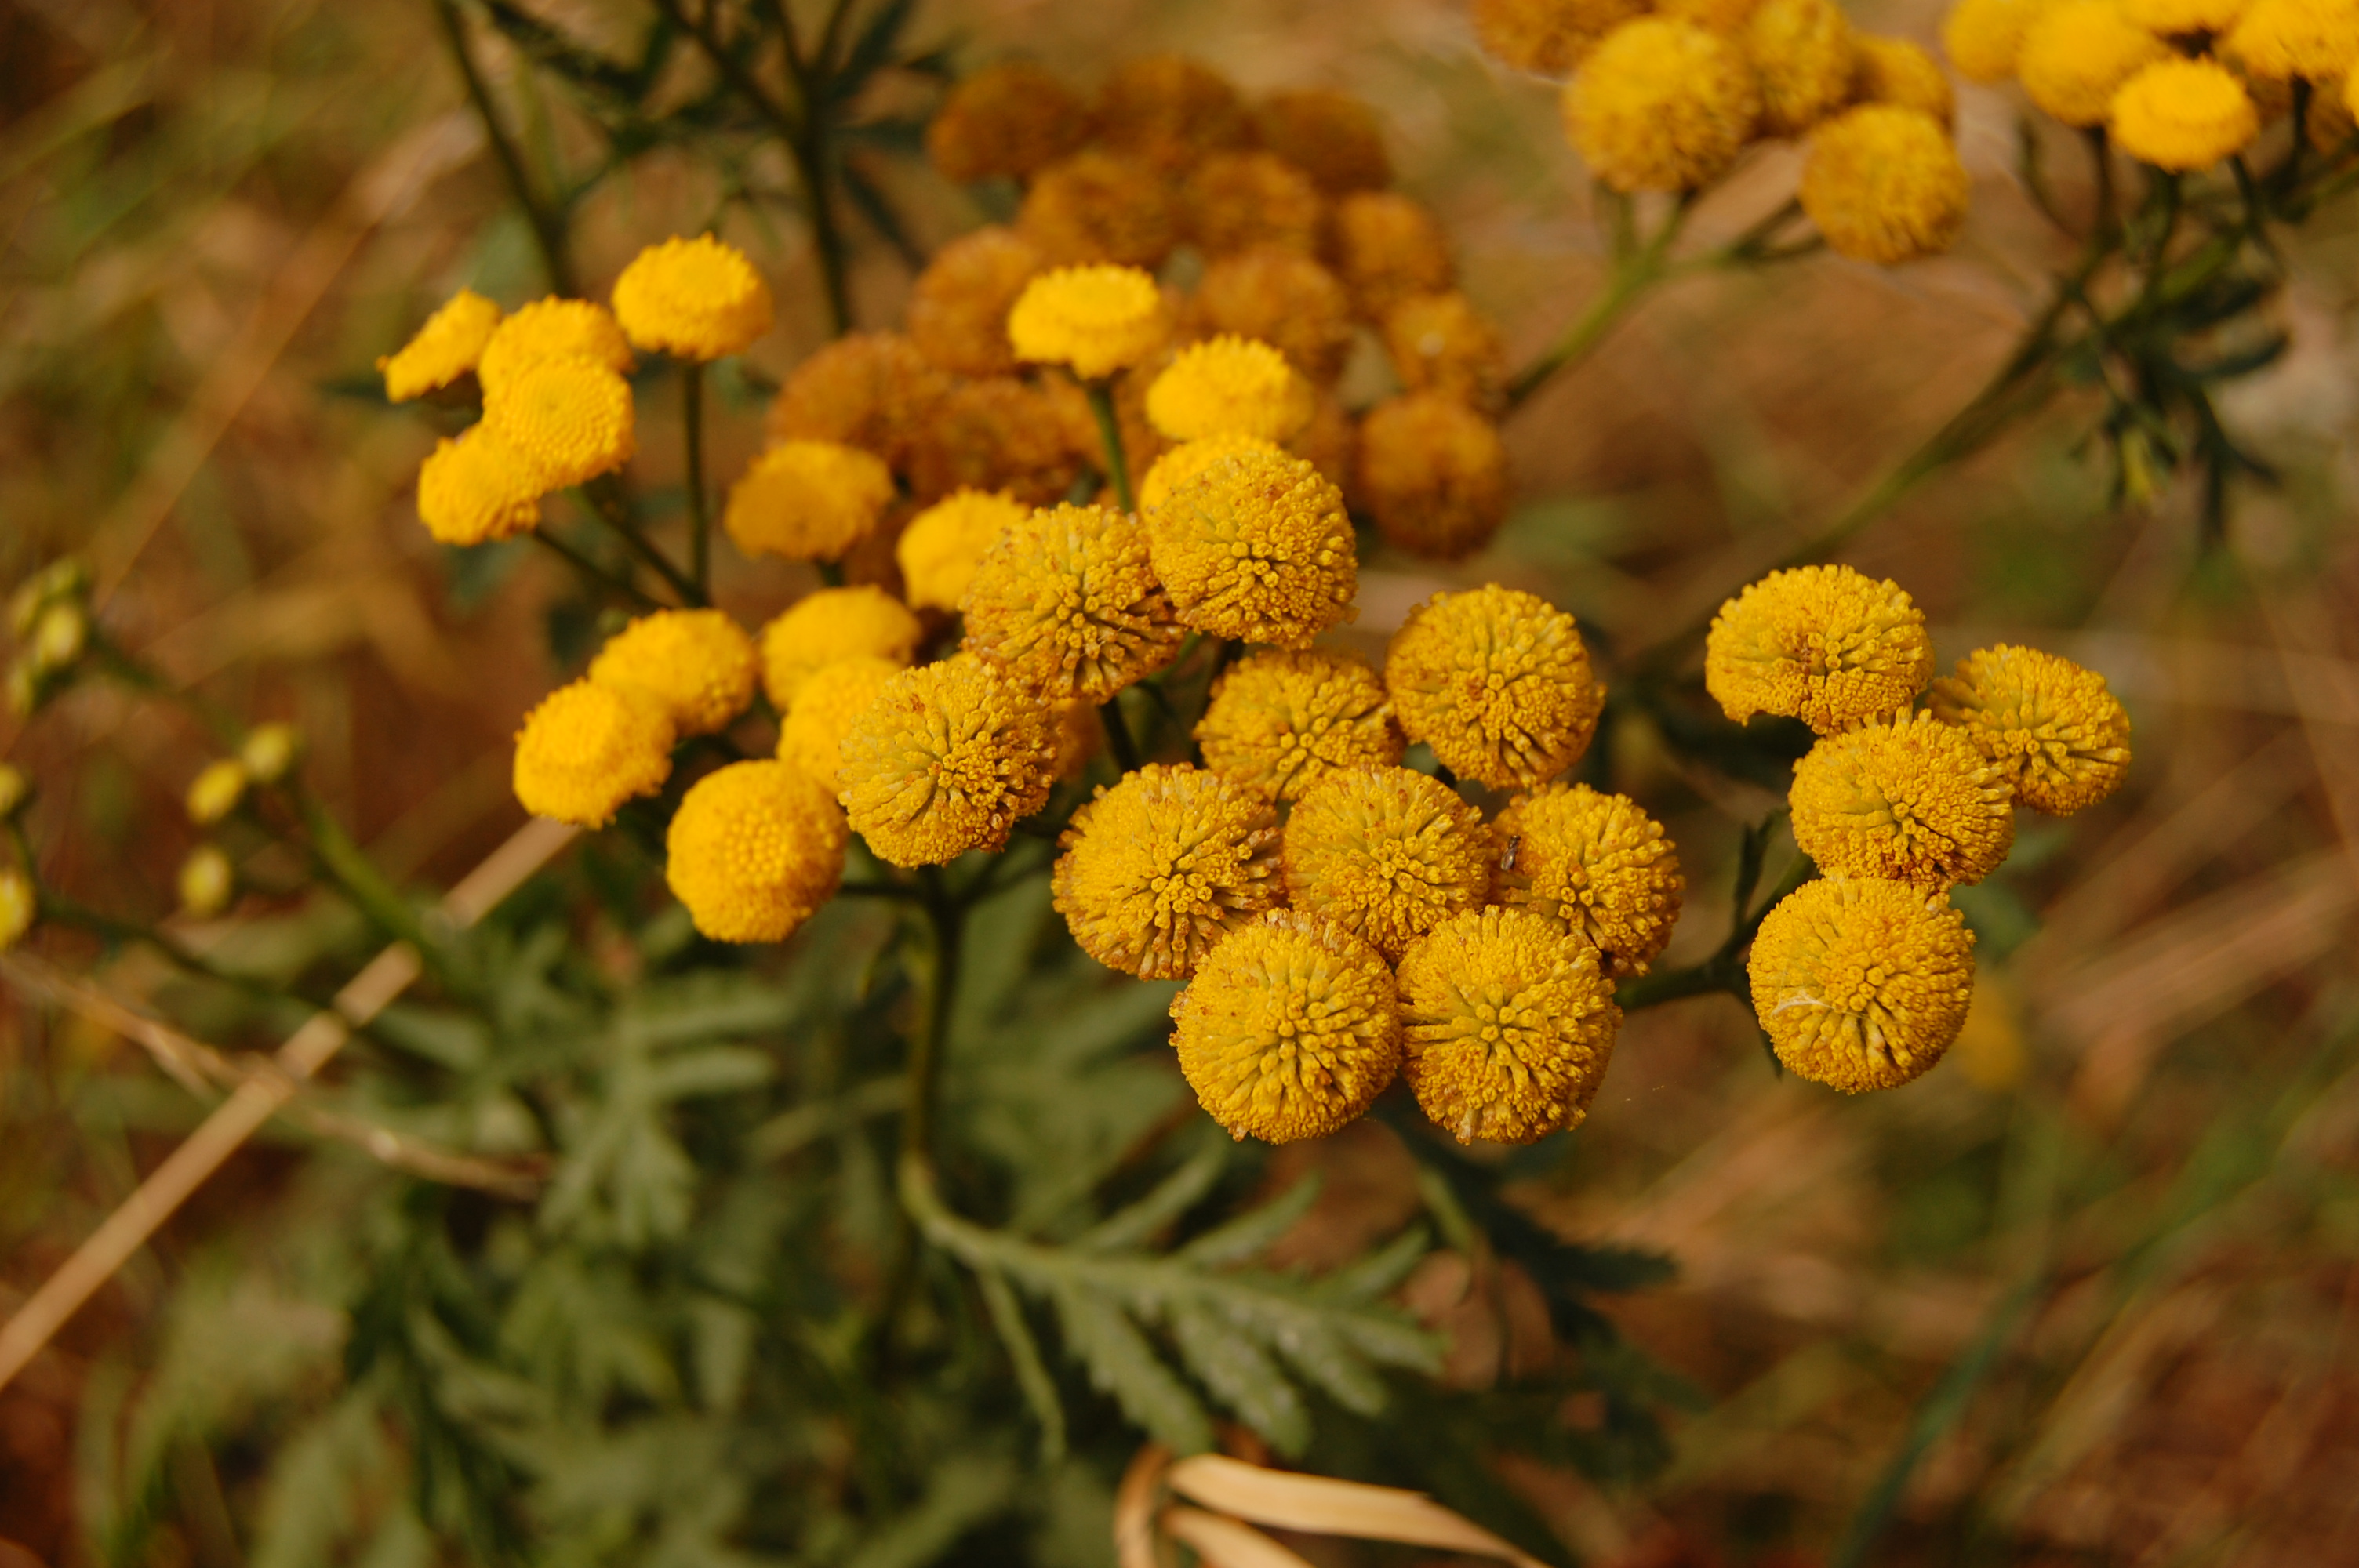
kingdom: Plantae
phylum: Tracheophyta
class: Magnoliopsida
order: Asterales
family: Asteraceae
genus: Tanacetum
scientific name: Tanacetum vulgare
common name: Common tansy
